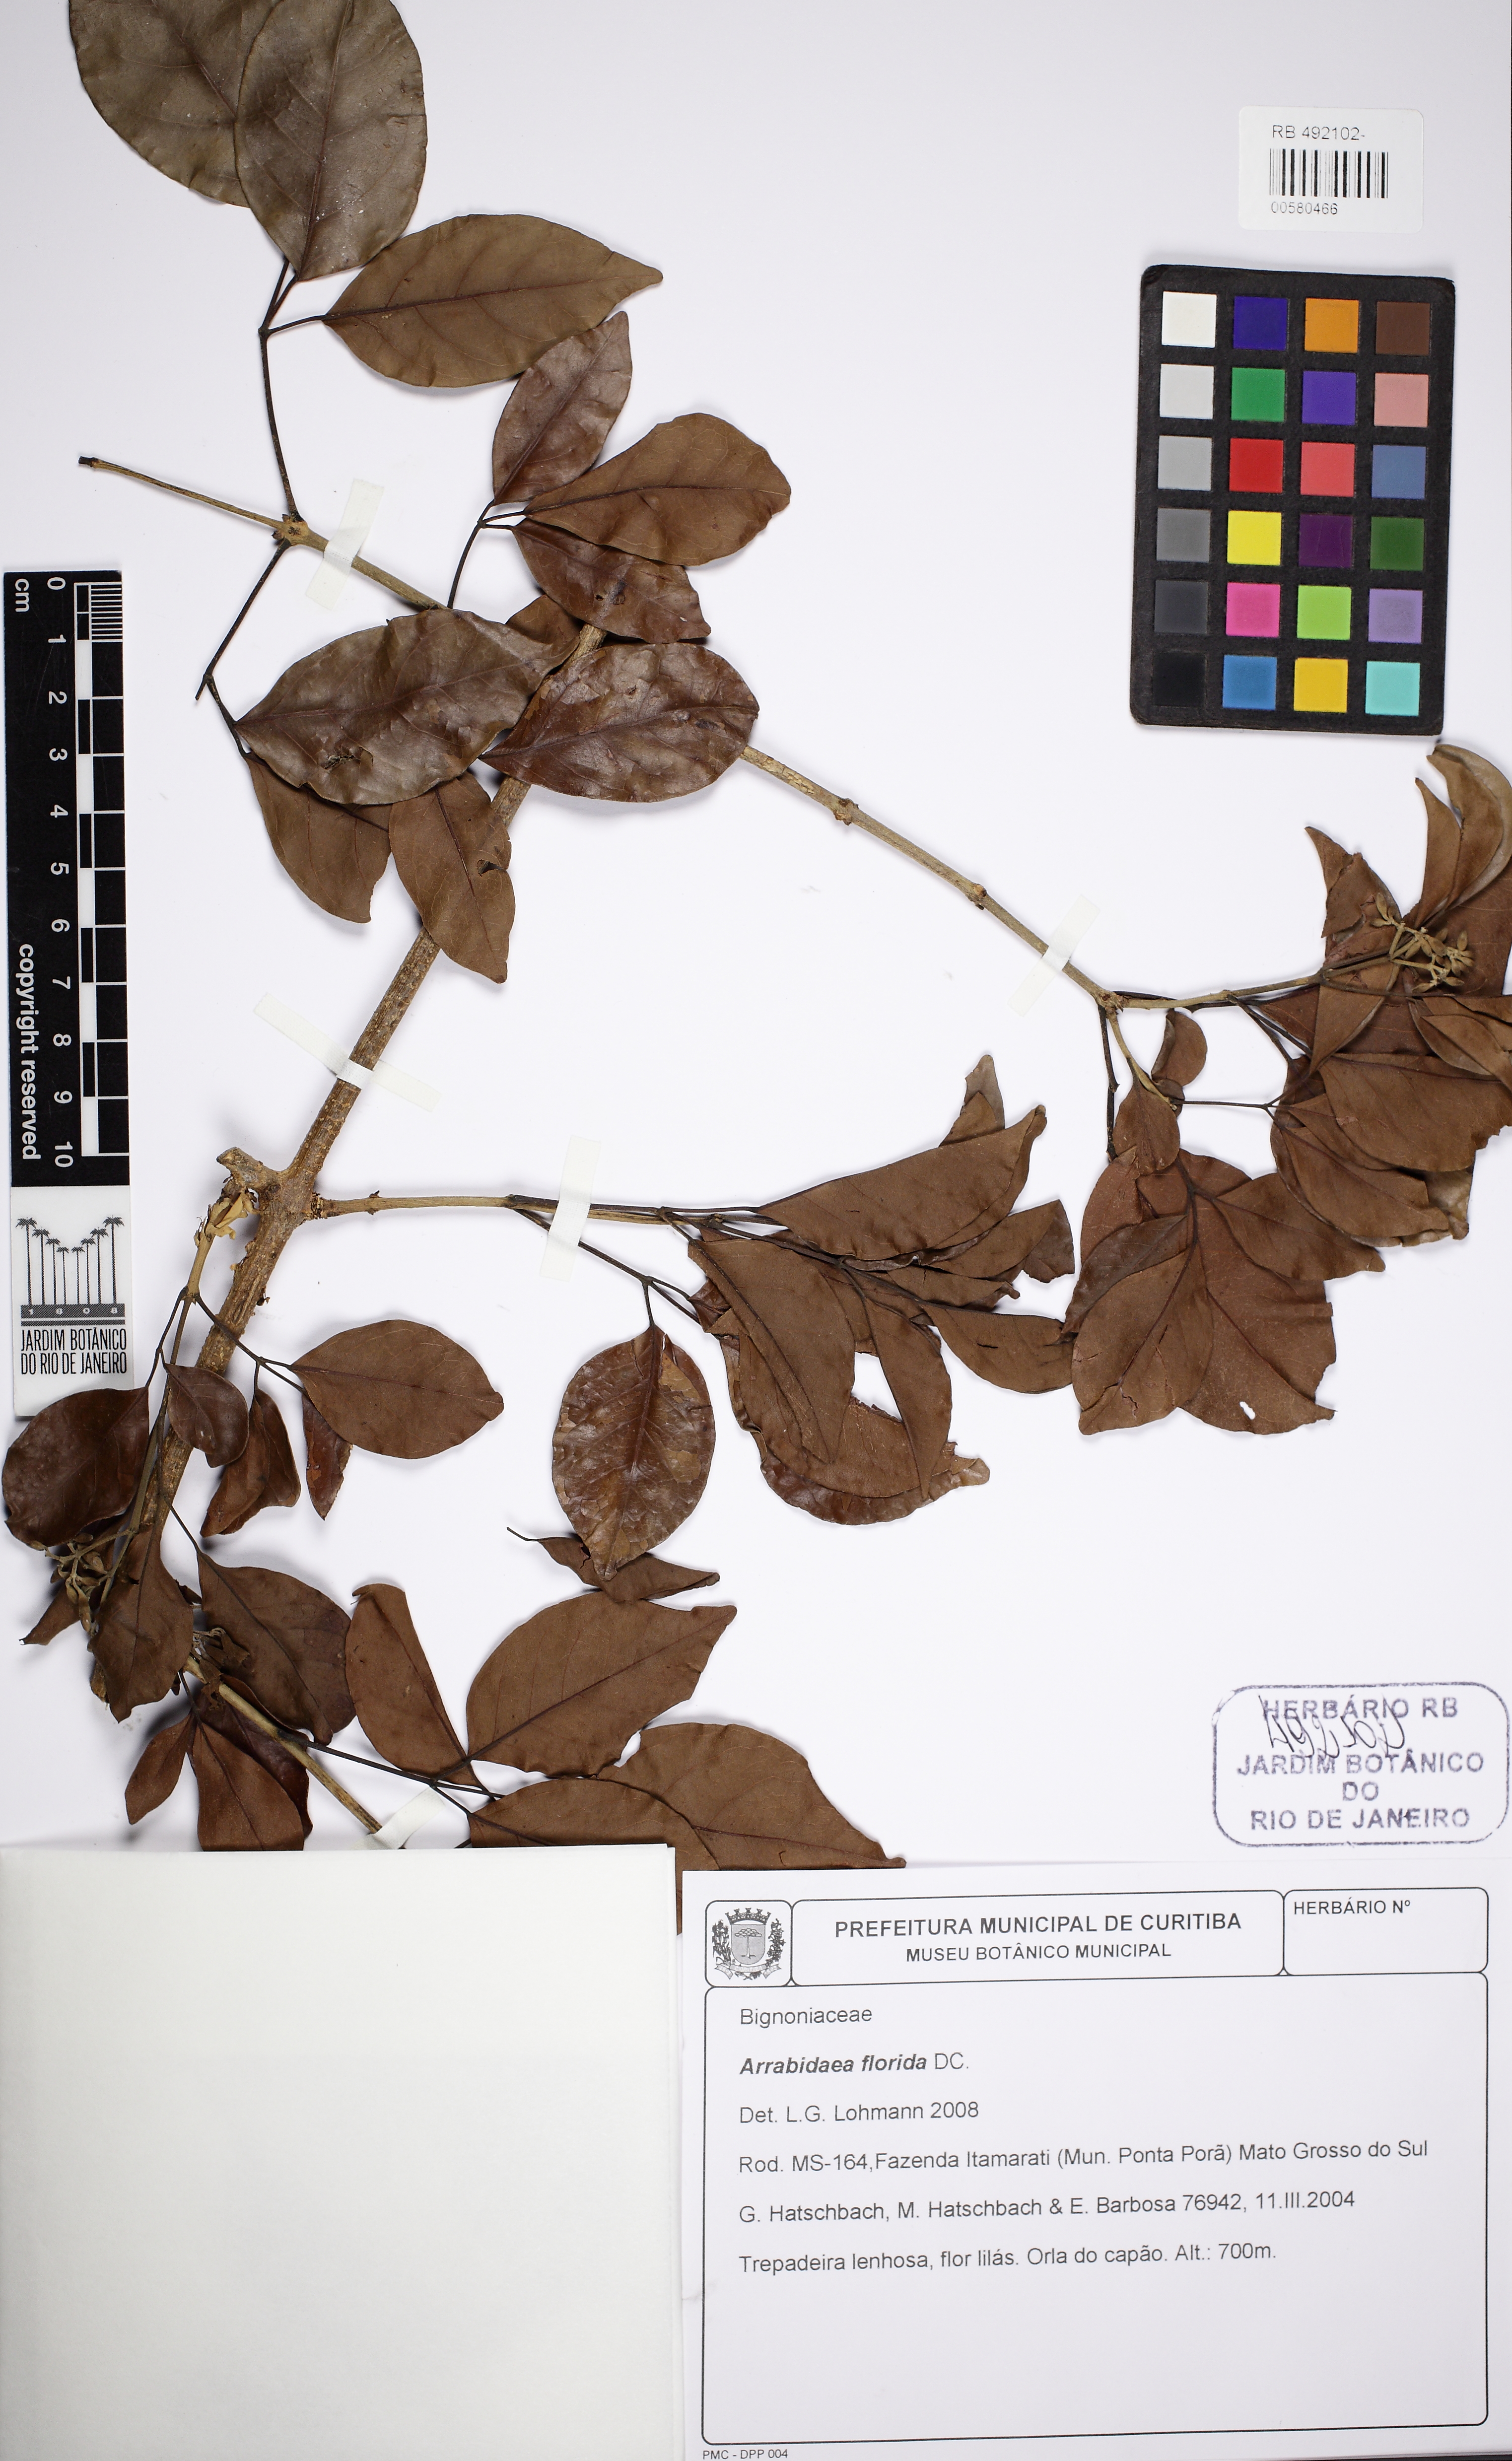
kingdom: Plantae
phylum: Tracheophyta
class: Magnoliopsida
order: Lamiales
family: Bignoniaceae
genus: Fridericia
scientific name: Fridericia florida
